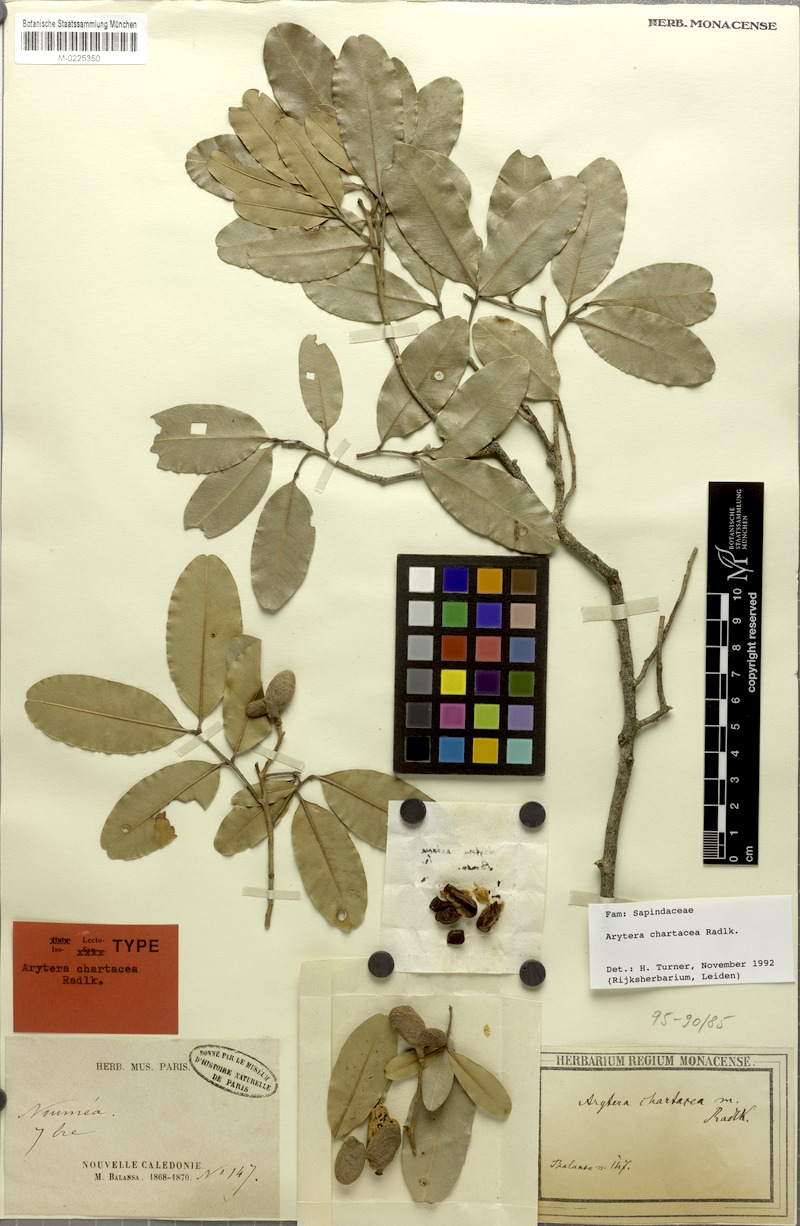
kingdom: Plantae
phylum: Tracheophyta
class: Magnoliopsida
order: Sapindales
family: Sapindaceae
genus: Neoarytera
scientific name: Neoarytera chartacea
